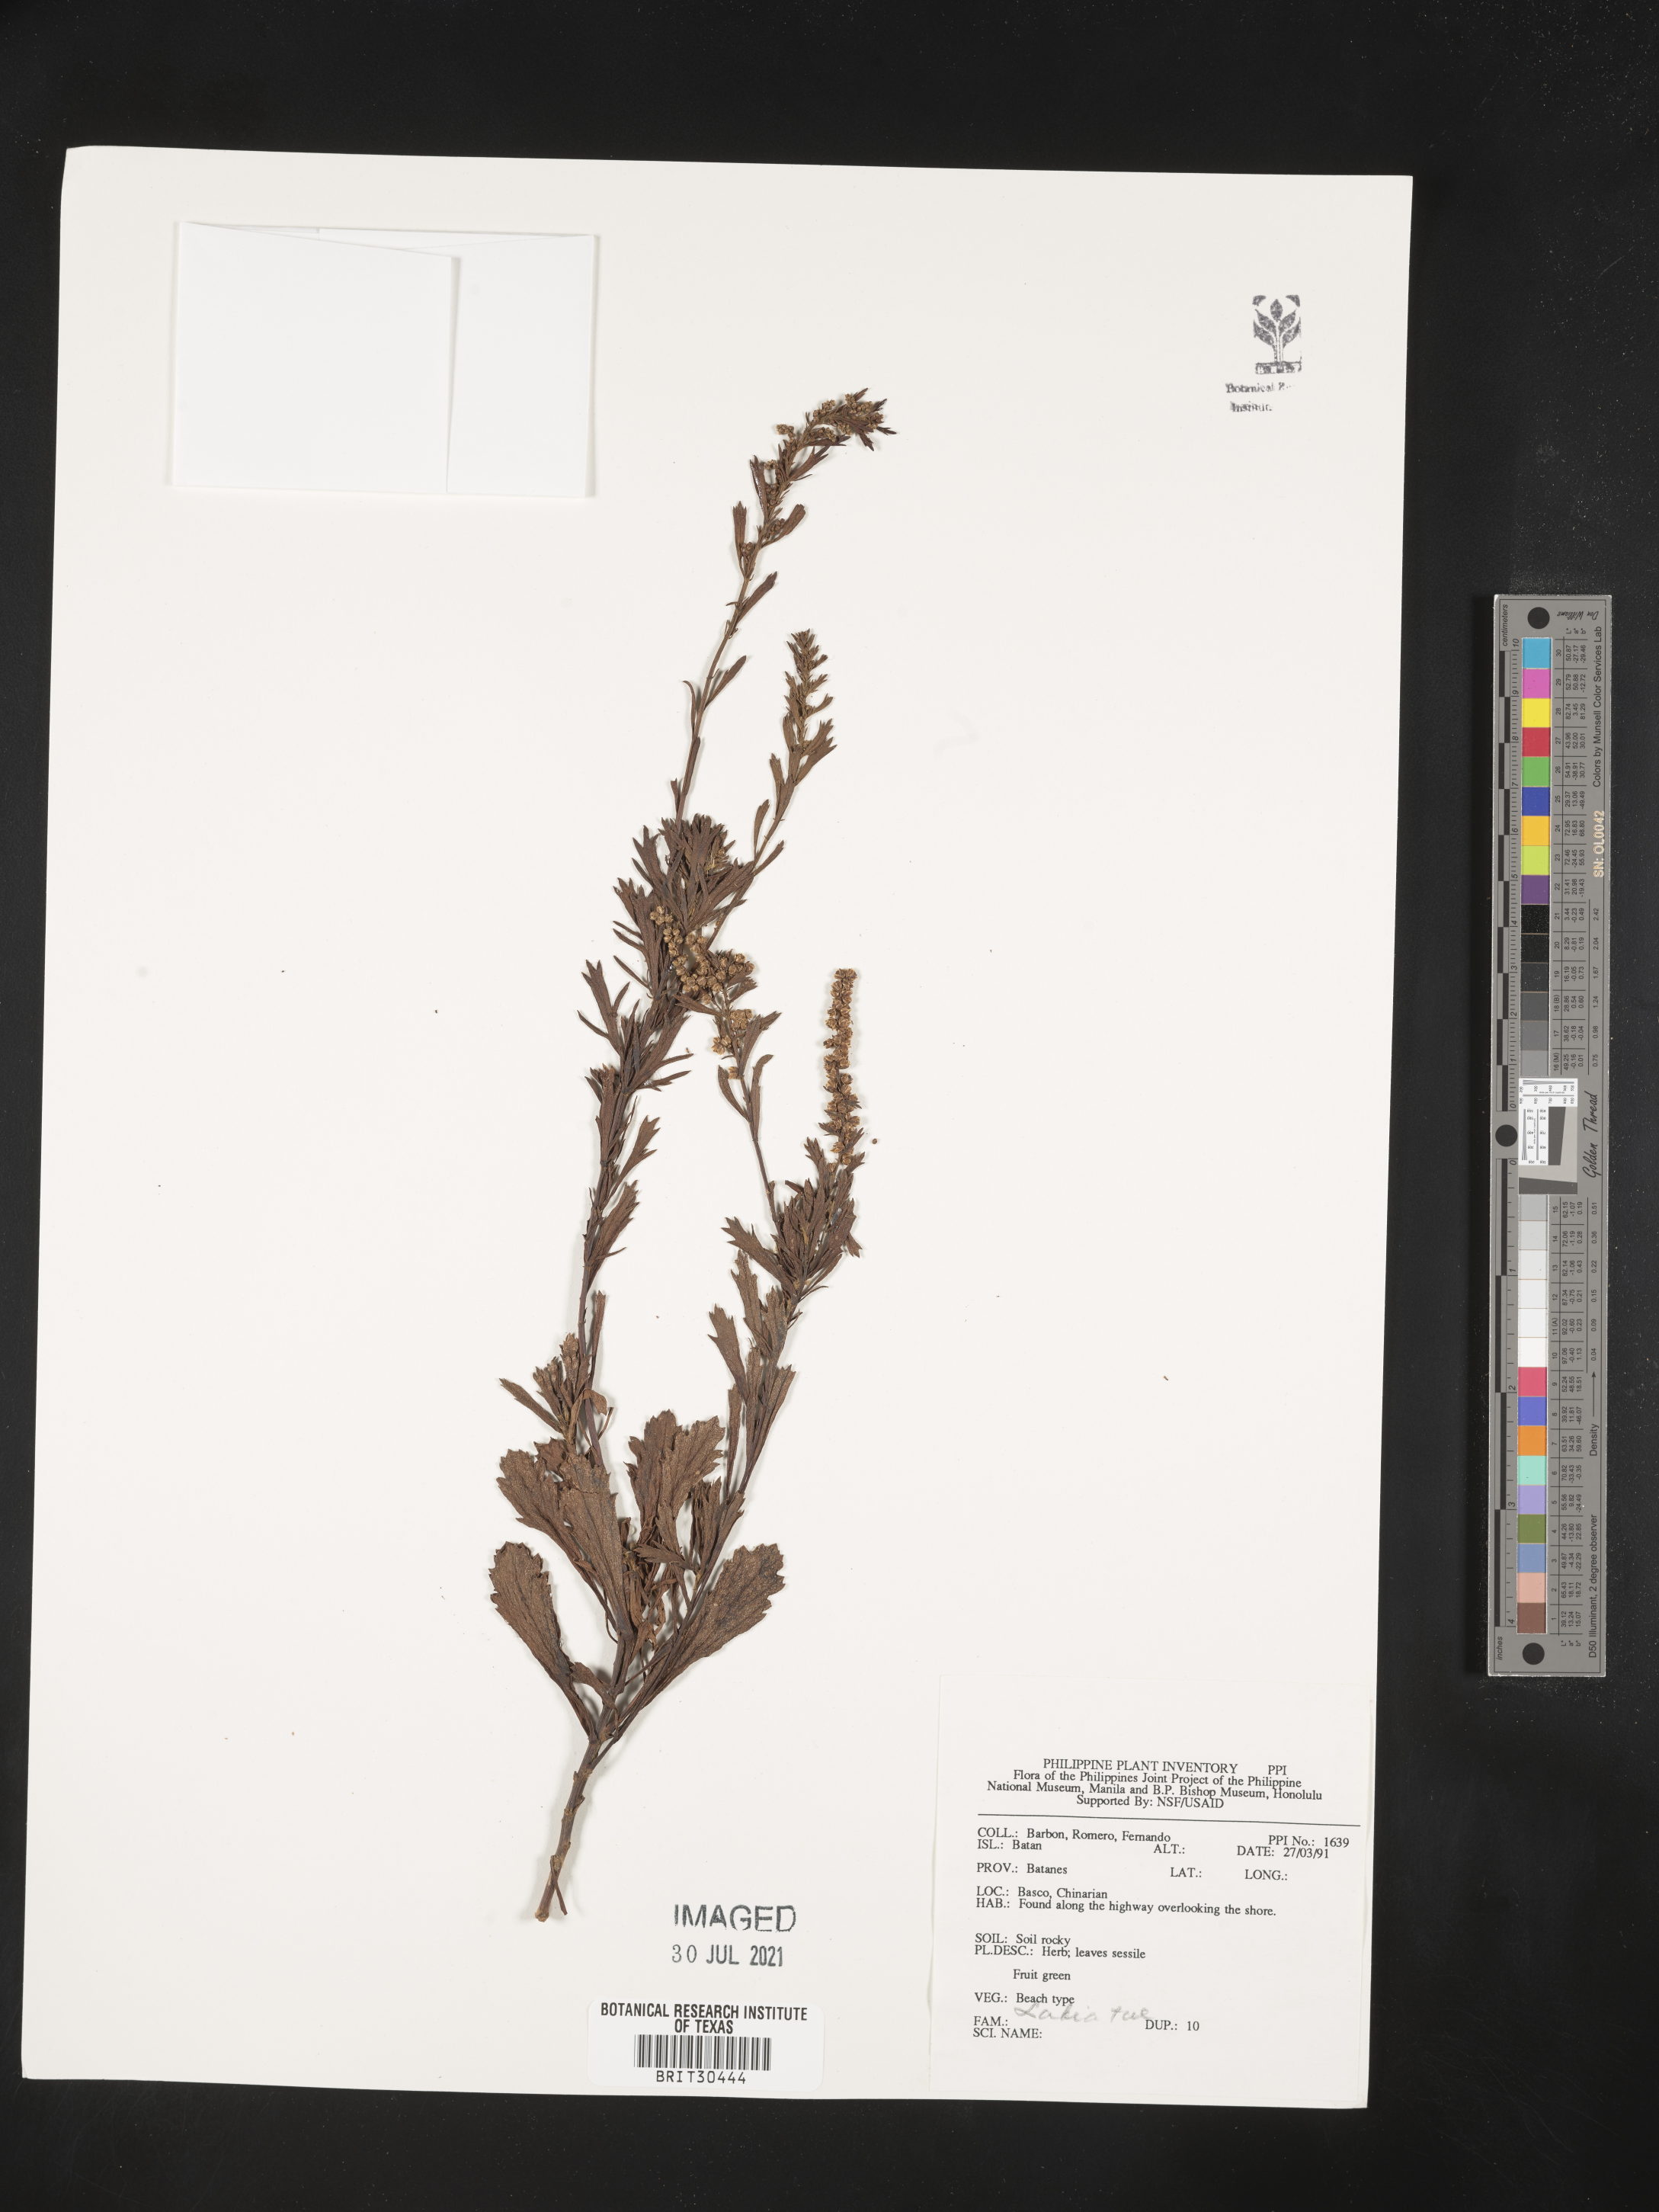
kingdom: Plantae
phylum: Tracheophyta
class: Magnoliopsida
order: Lamiales
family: Lamiaceae
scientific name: Lamiaceae
